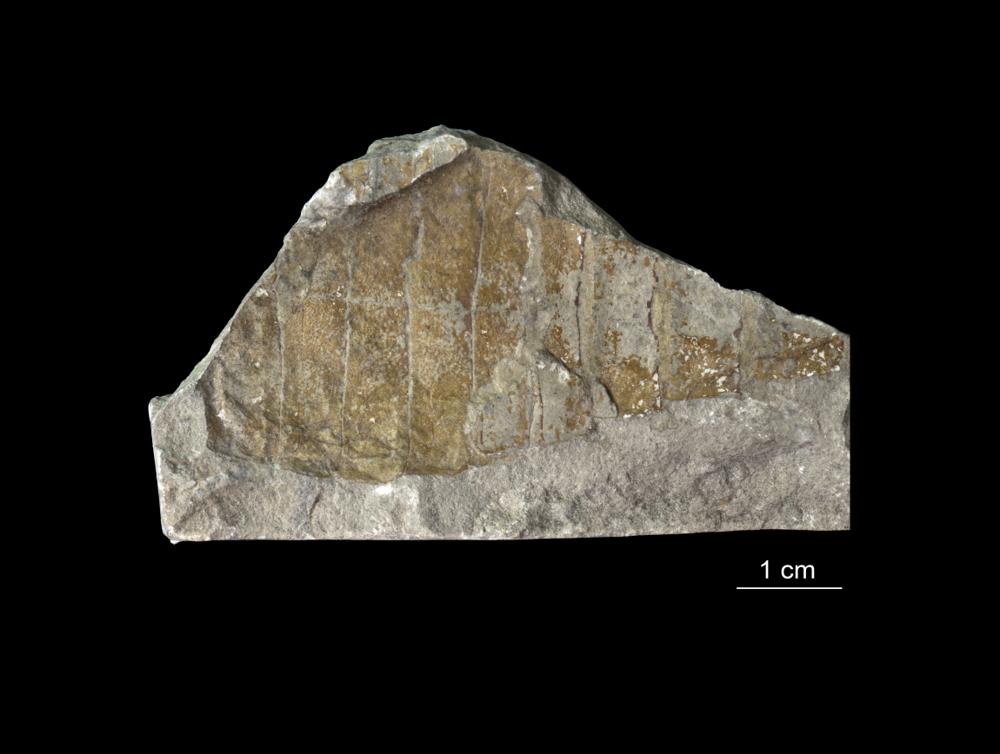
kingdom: Animalia
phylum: Arthropoda
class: Merostomata
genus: Baltoeurypterus
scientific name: Baltoeurypterus
